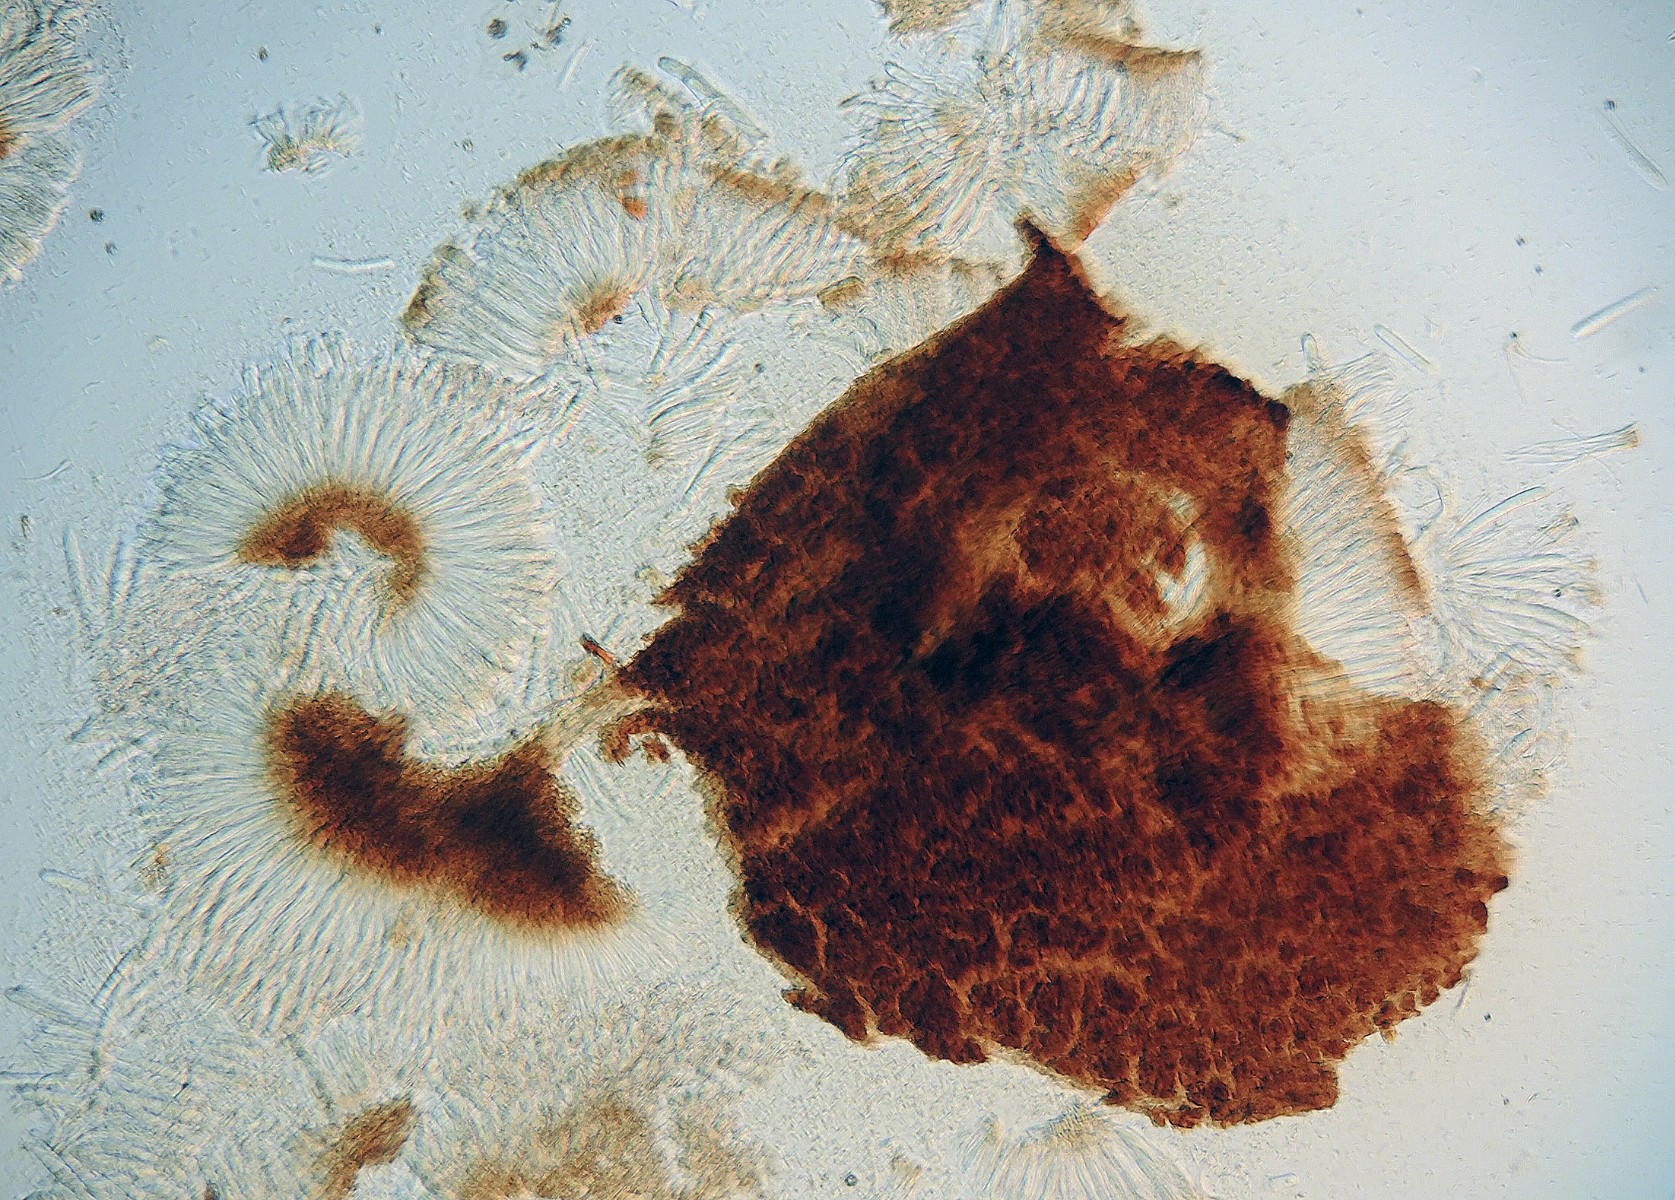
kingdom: Fungi
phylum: Ascomycota
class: Leotiomycetes
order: Leotiales
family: Tympanidaceae
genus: Tympanis
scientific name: Tympanis hypopodia
